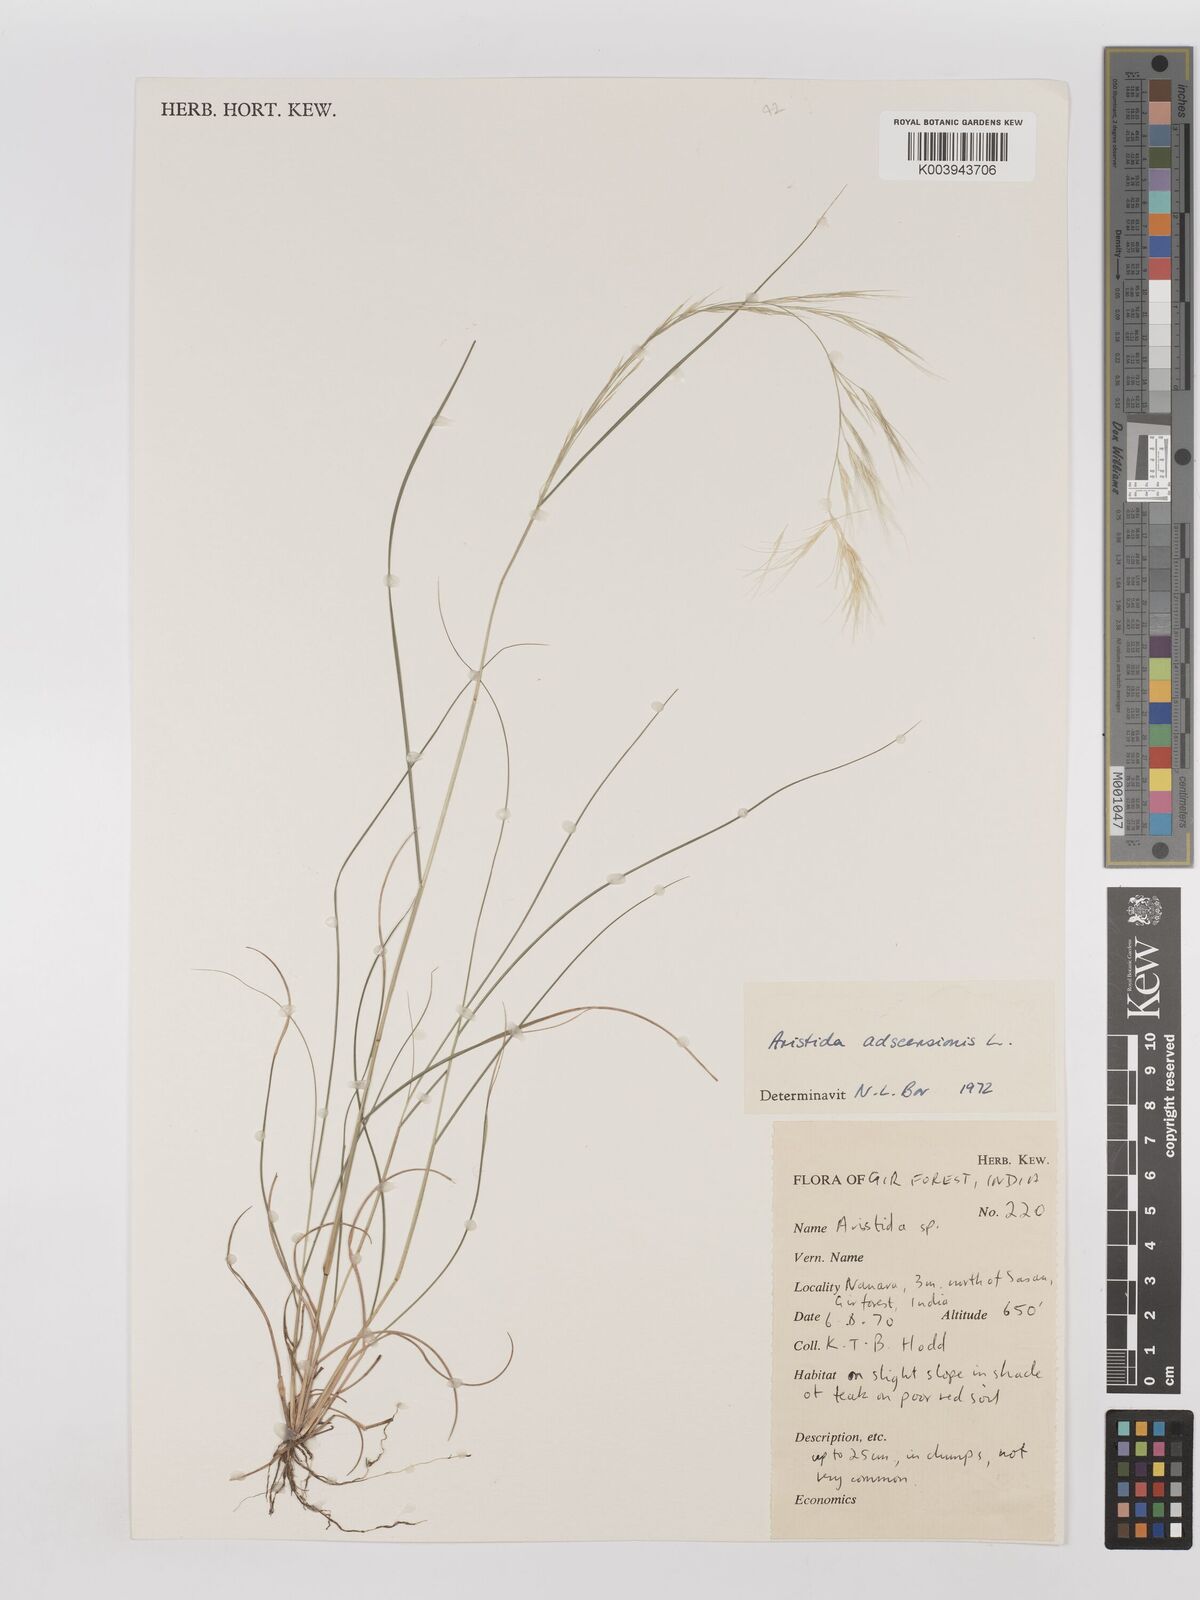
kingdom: Plantae
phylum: Tracheophyta
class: Liliopsida
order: Poales
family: Poaceae
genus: Aristida
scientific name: Aristida adscensionis
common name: Sixweeks threeawn
